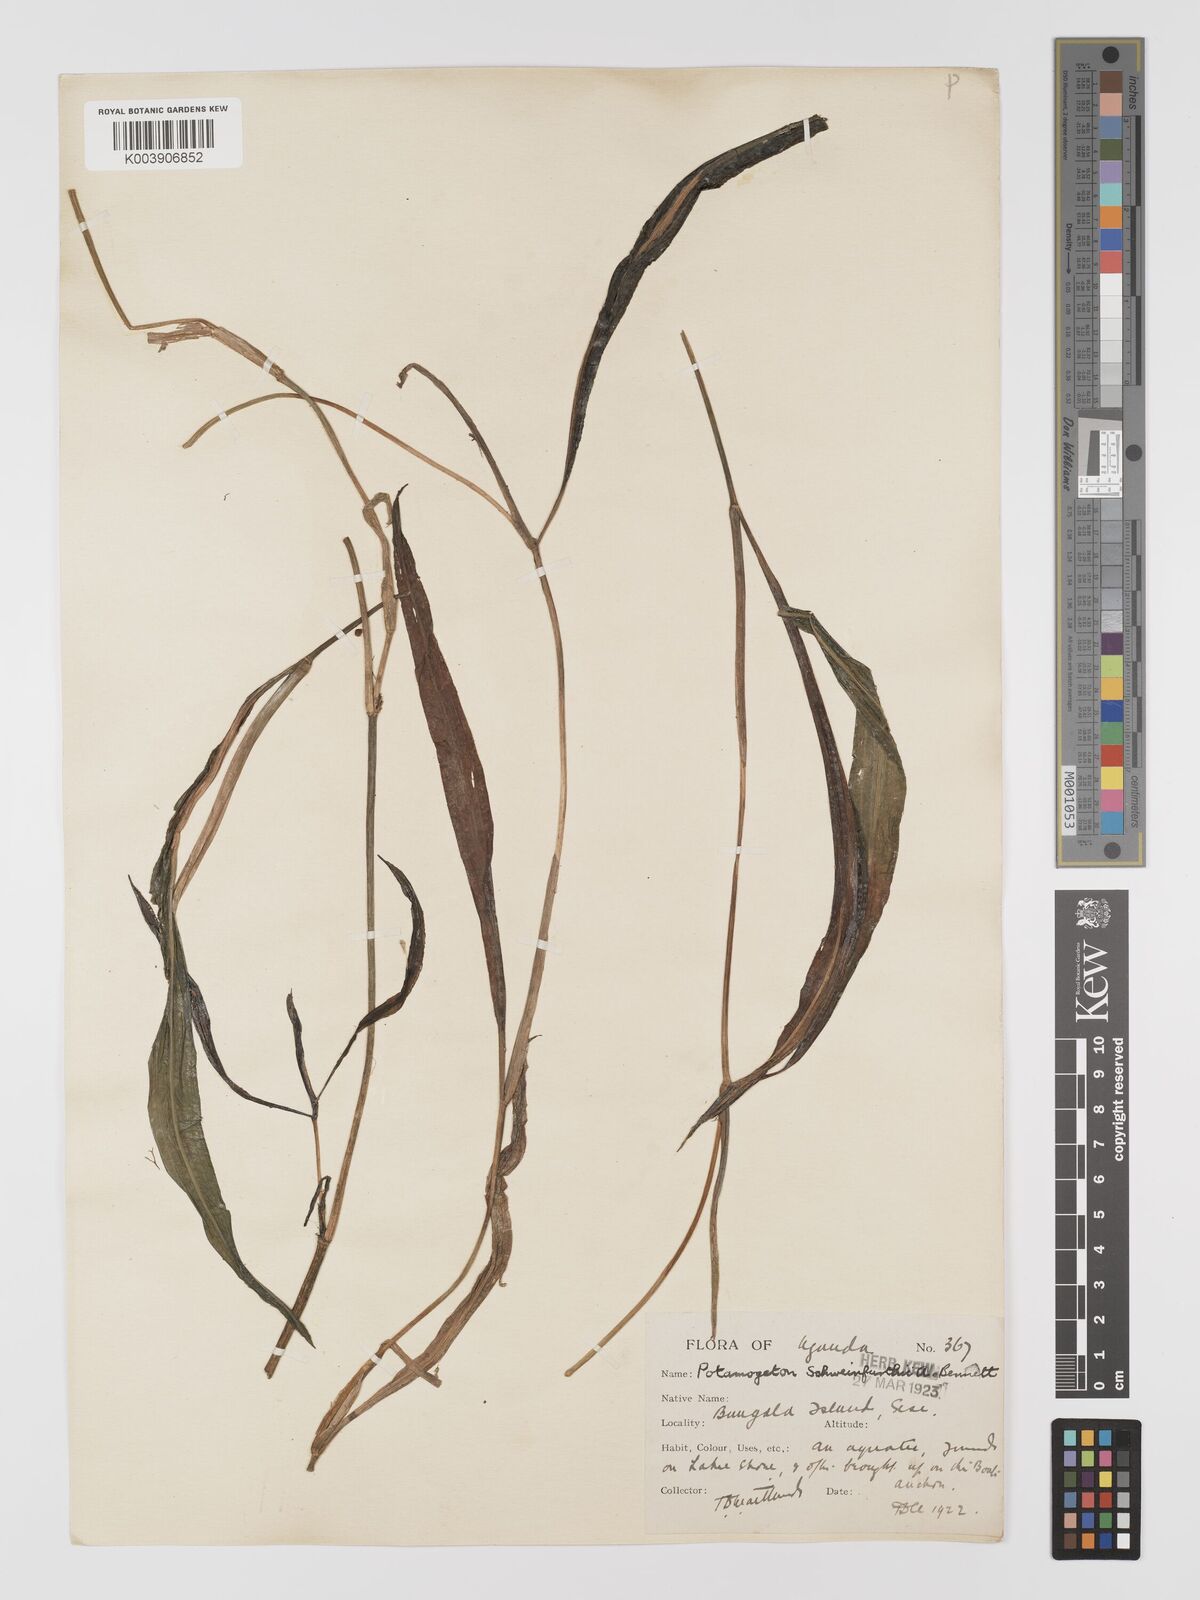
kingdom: Plantae
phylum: Tracheophyta
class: Liliopsida
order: Alismatales
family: Potamogetonaceae
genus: Potamogeton
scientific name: Potamogeton schweinfurthii
